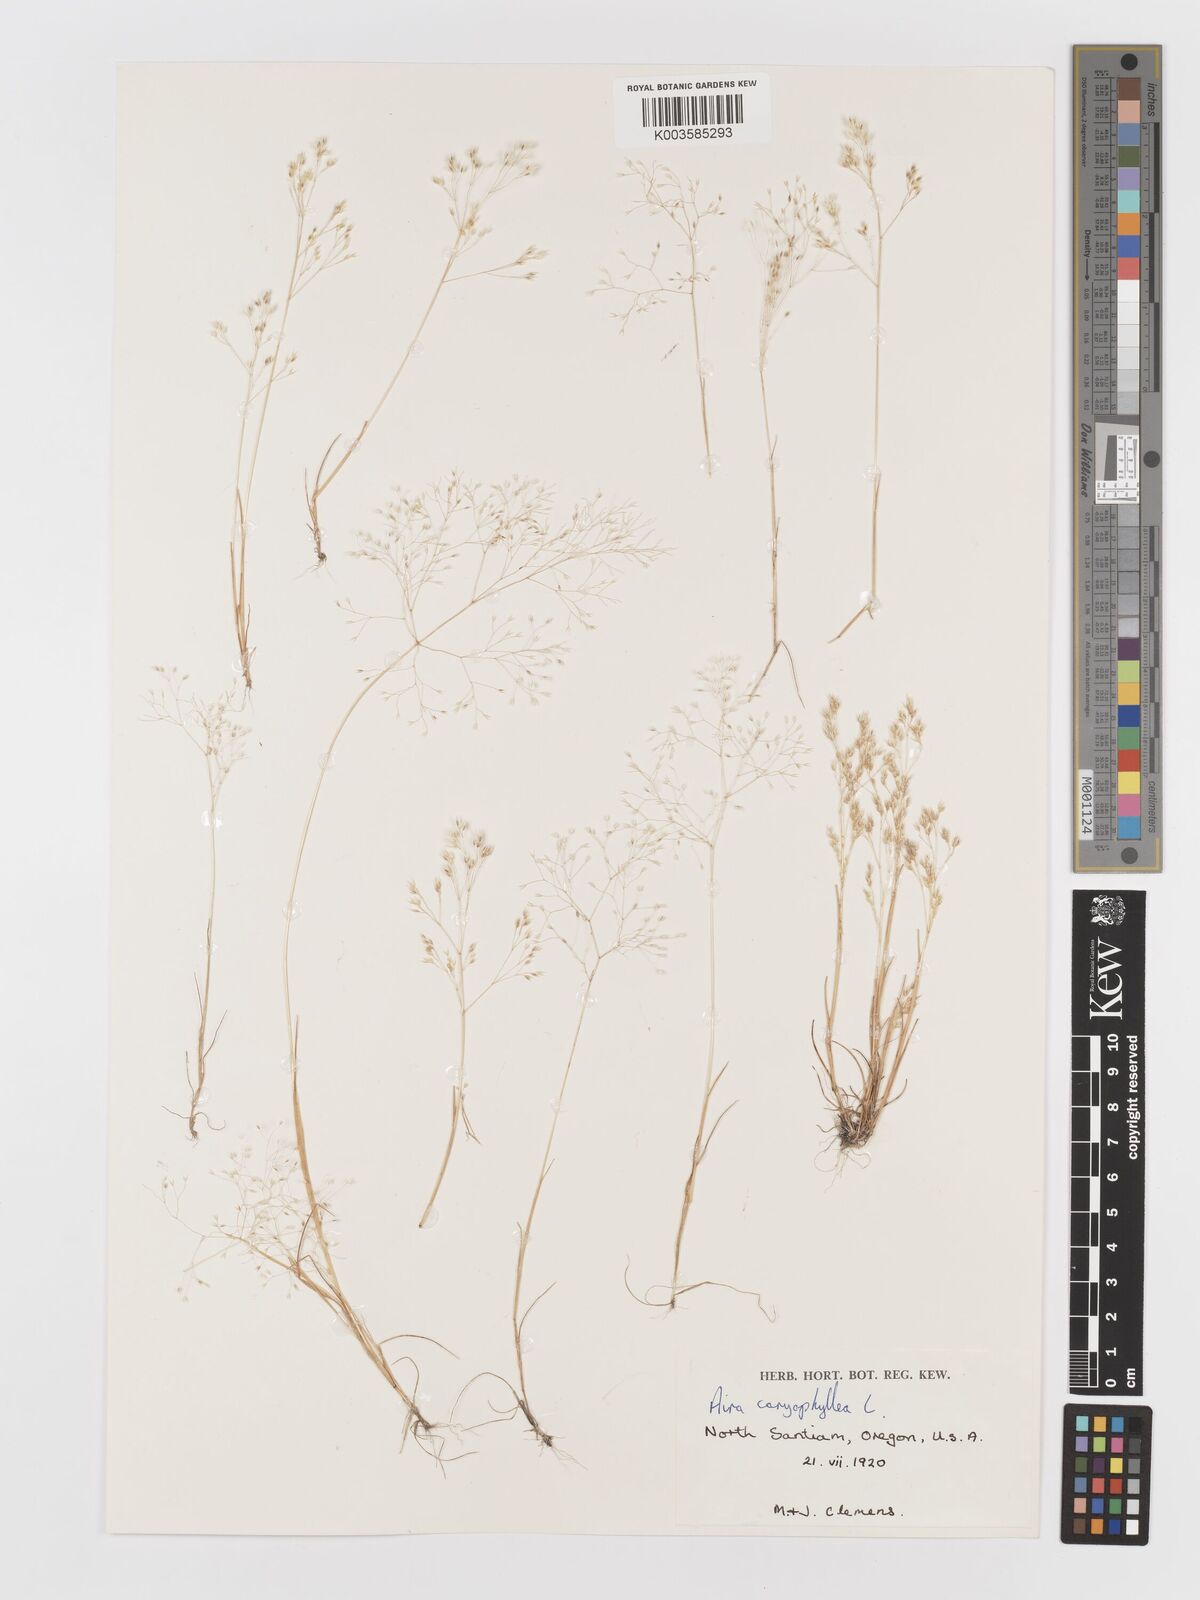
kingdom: Plantae
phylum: Tracheophyta
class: Liliopsida
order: Poales
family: Poaceae
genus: Aira
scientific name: Aira caryophyllea
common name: Silver hairgrass
